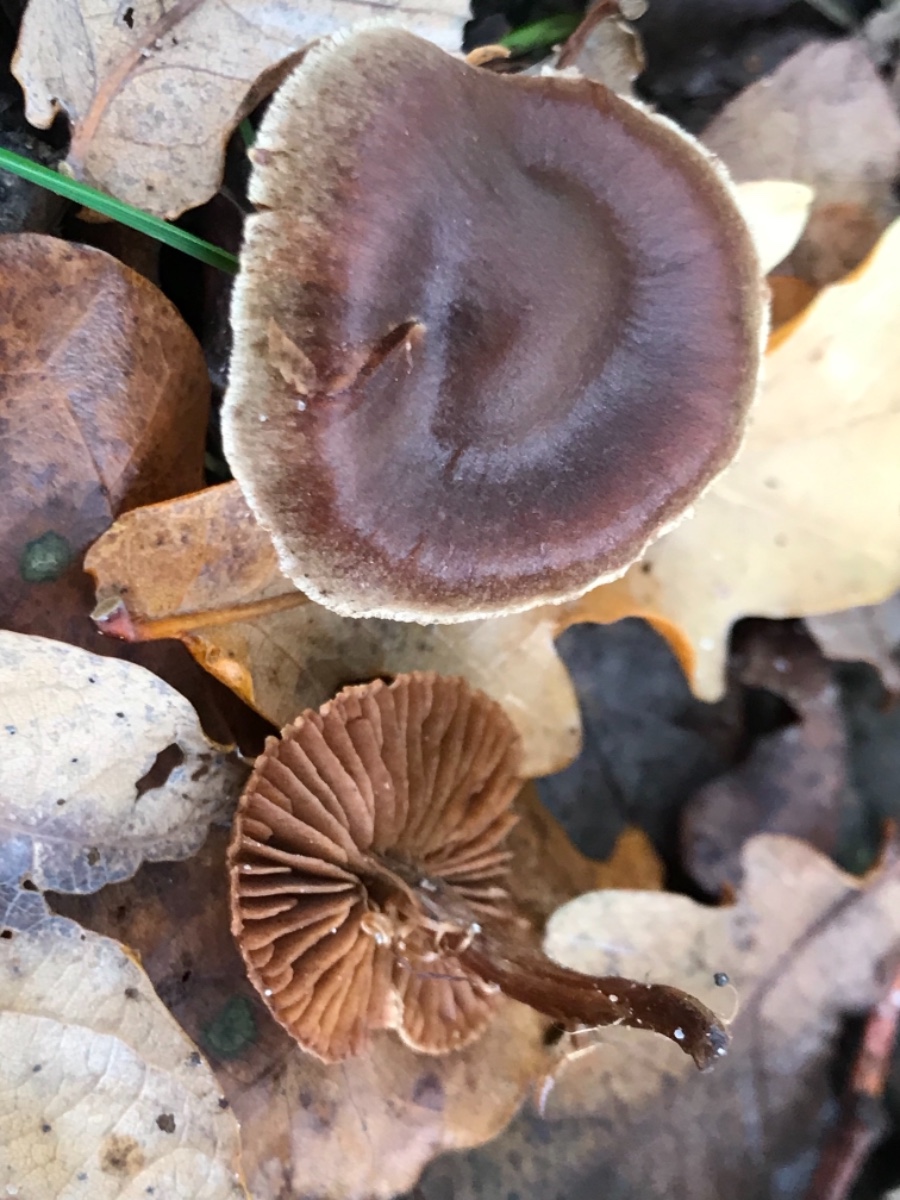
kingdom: Fungi
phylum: Basidiomycota
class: Agaricomycetes
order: Agaricales
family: Cortinariaceae
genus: Cortinarius
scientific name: Cortinarius
